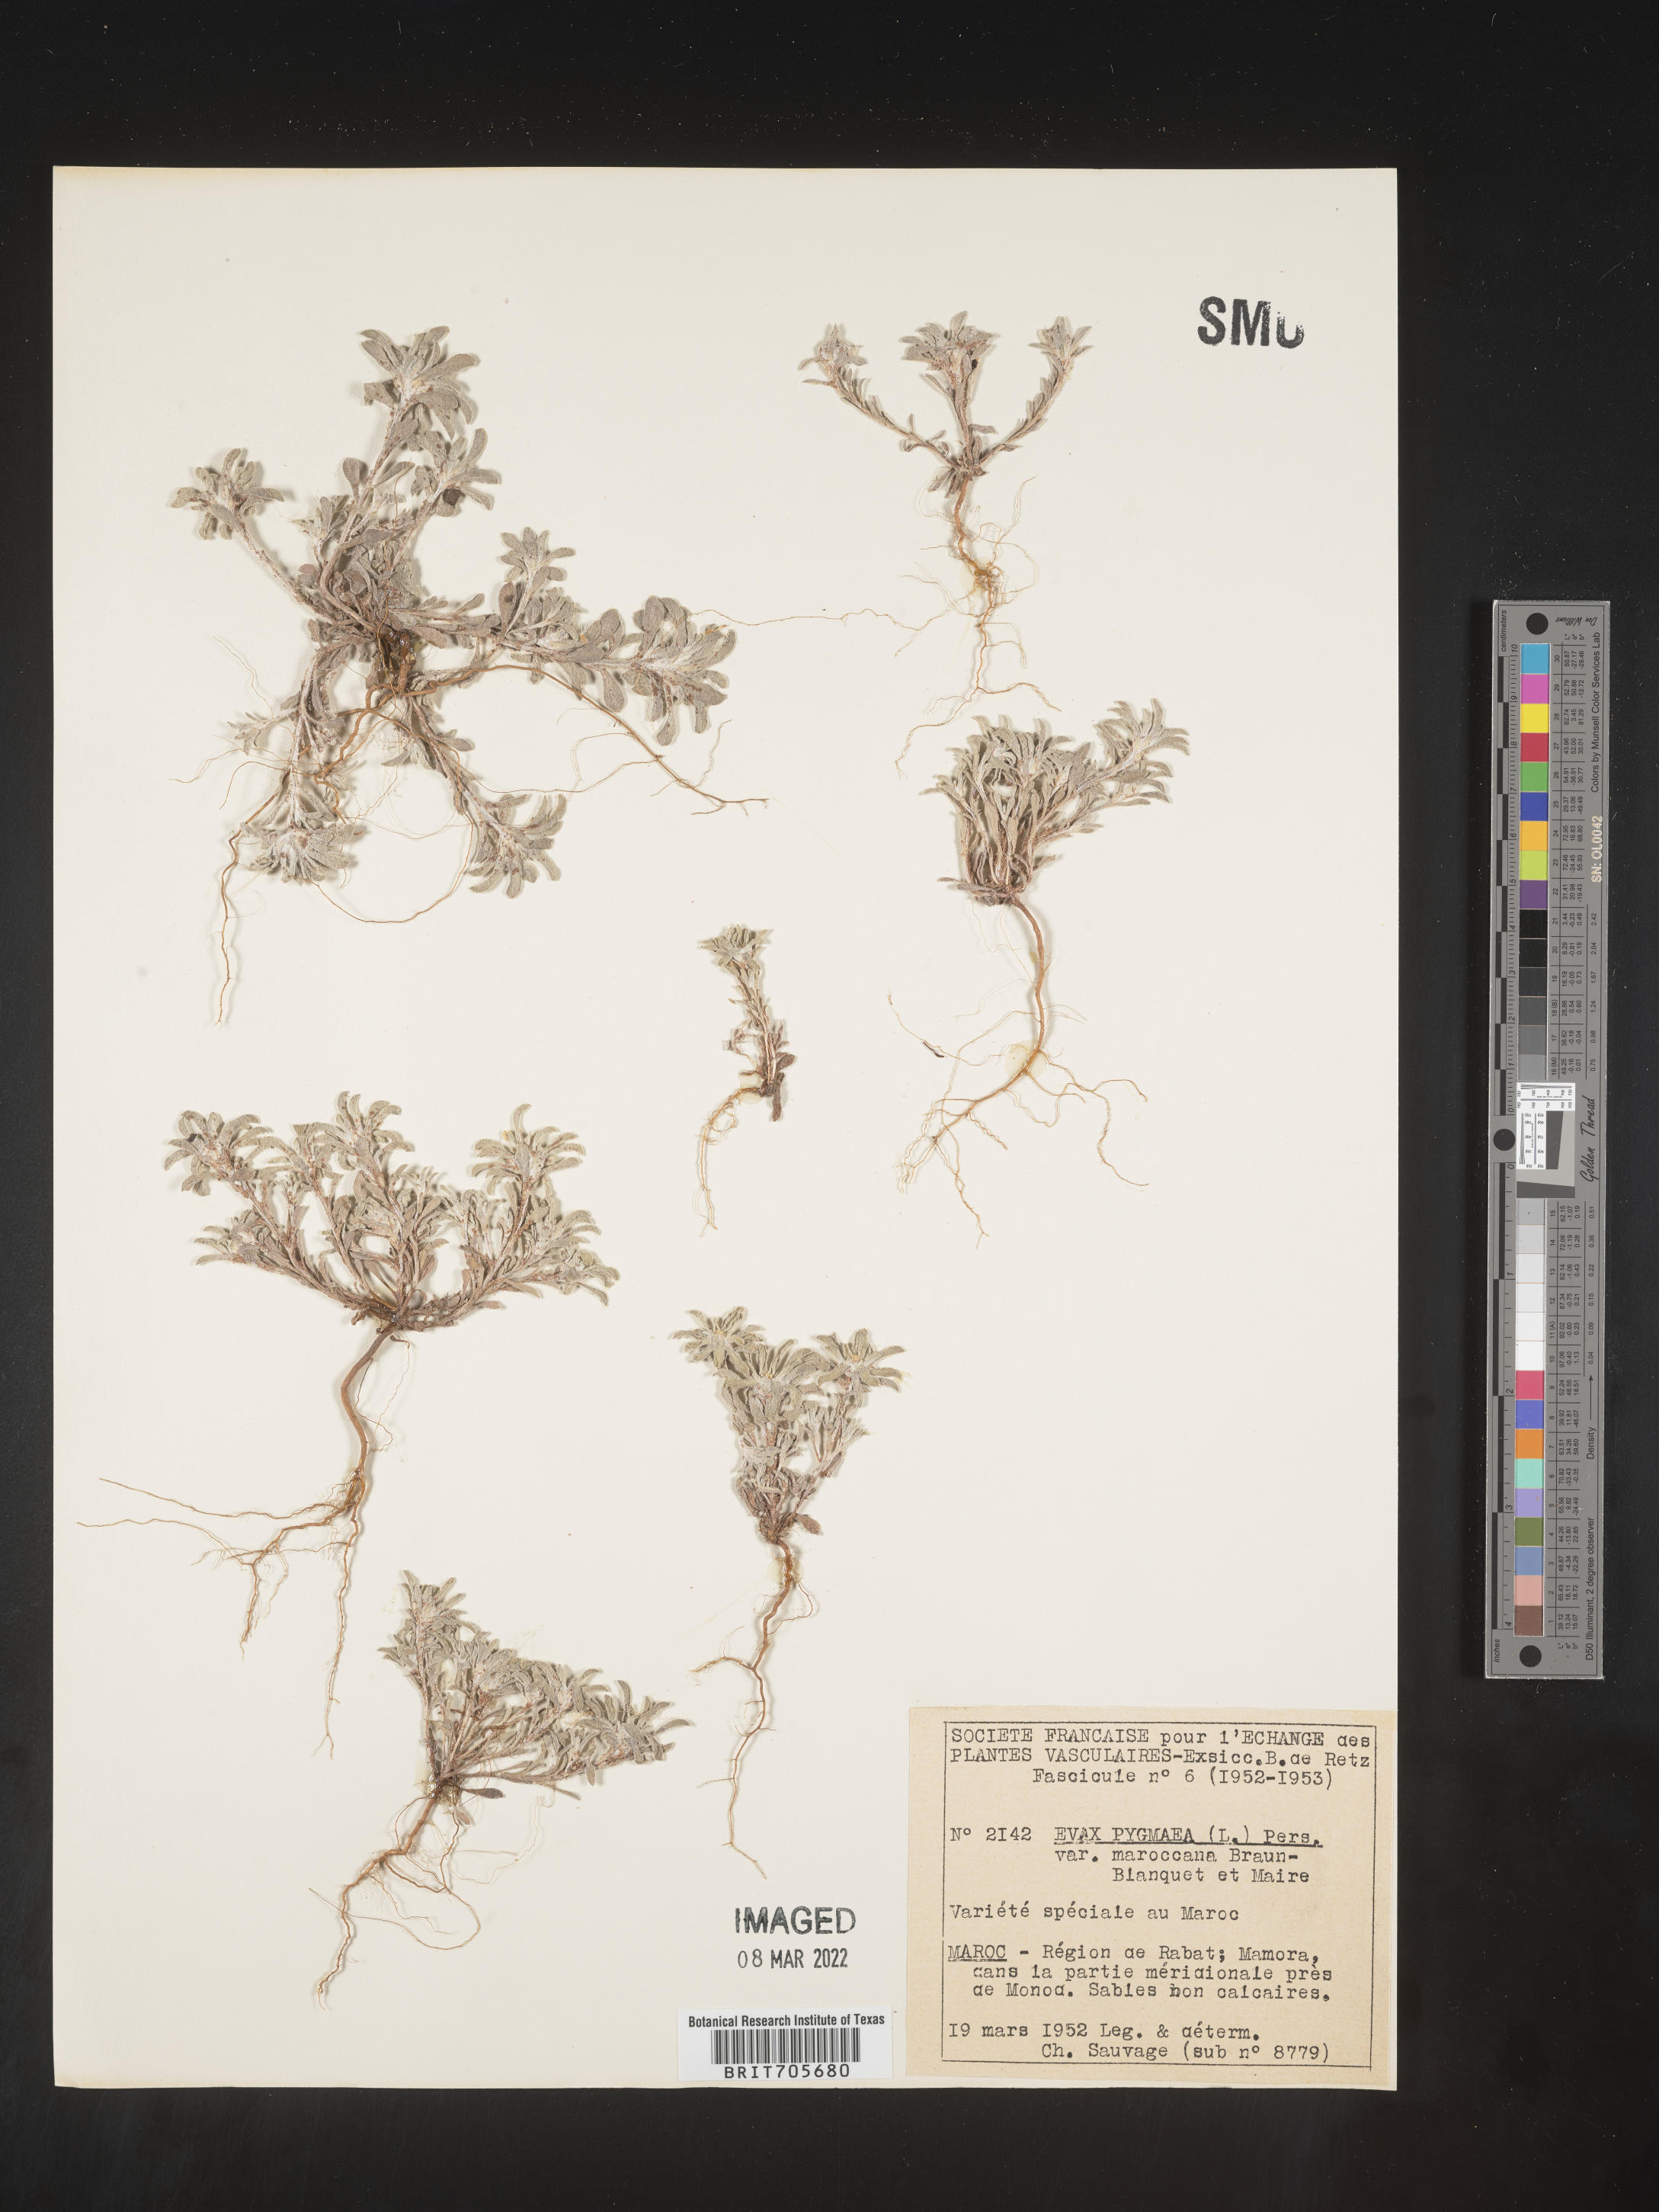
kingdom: Plantae
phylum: Tracheophyta
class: Magnoliopsida
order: Asterales
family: Asteraceae
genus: Filago
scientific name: Filago
